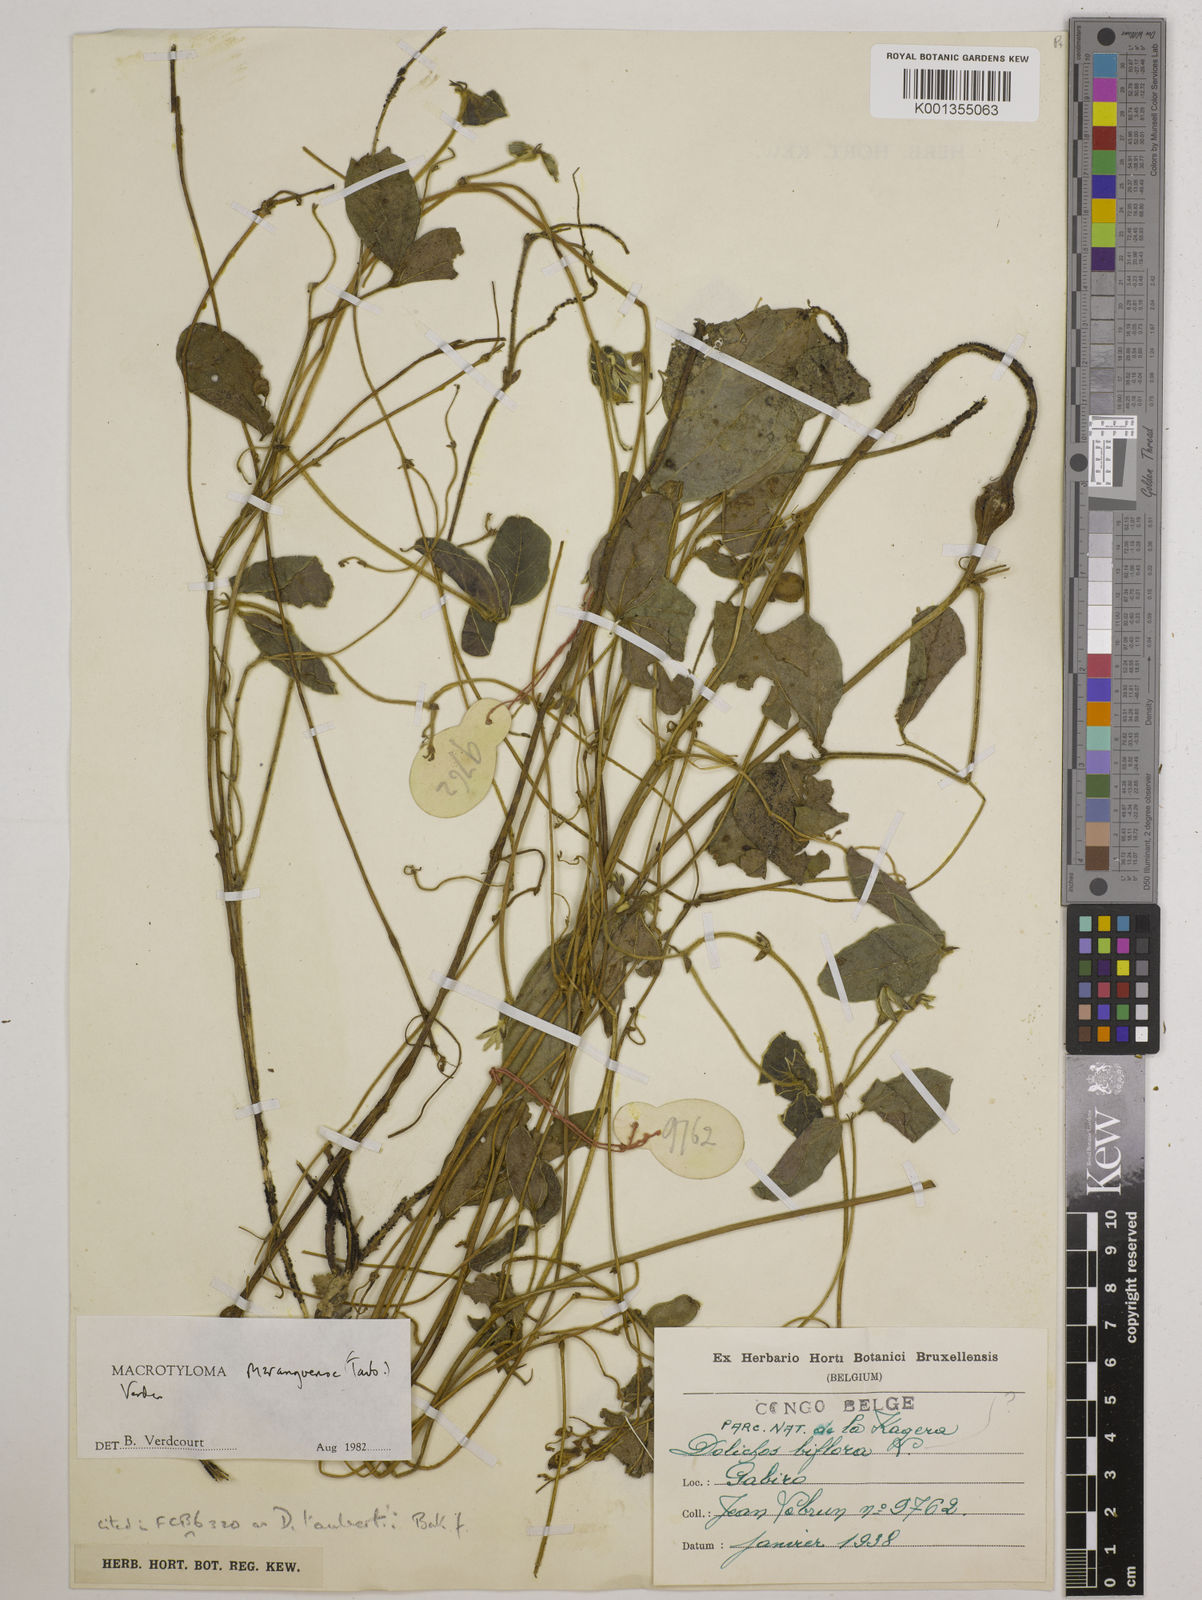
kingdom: Plantae
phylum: Tracheophyta
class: Magnoliopsida
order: Fabales
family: Fabaceae
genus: Macrotyloma
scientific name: Macrotyloma maranguense
